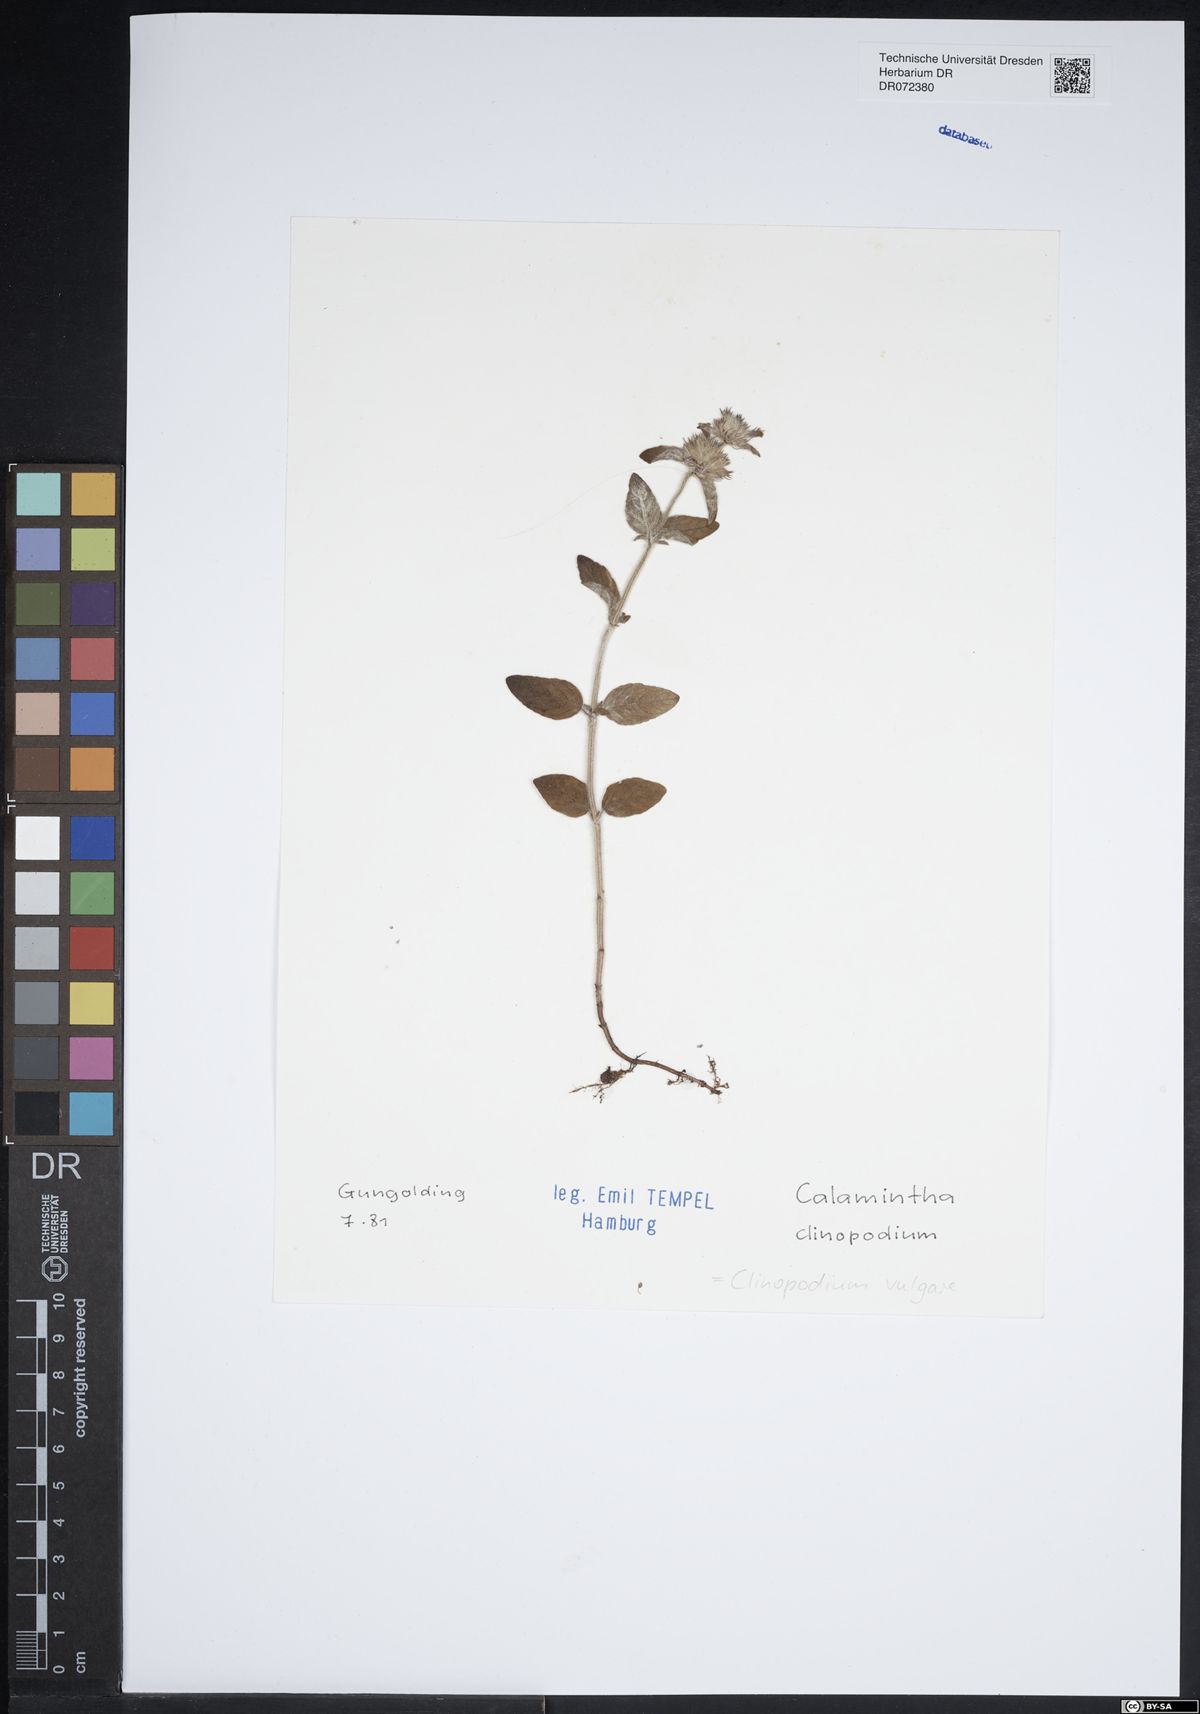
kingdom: Plantae
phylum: Tracheophyta
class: Magnoliopsida
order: Lamiales
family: Lamiaceae
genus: Clinopodium
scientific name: Clinopodium vulgare
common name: Wild basil
